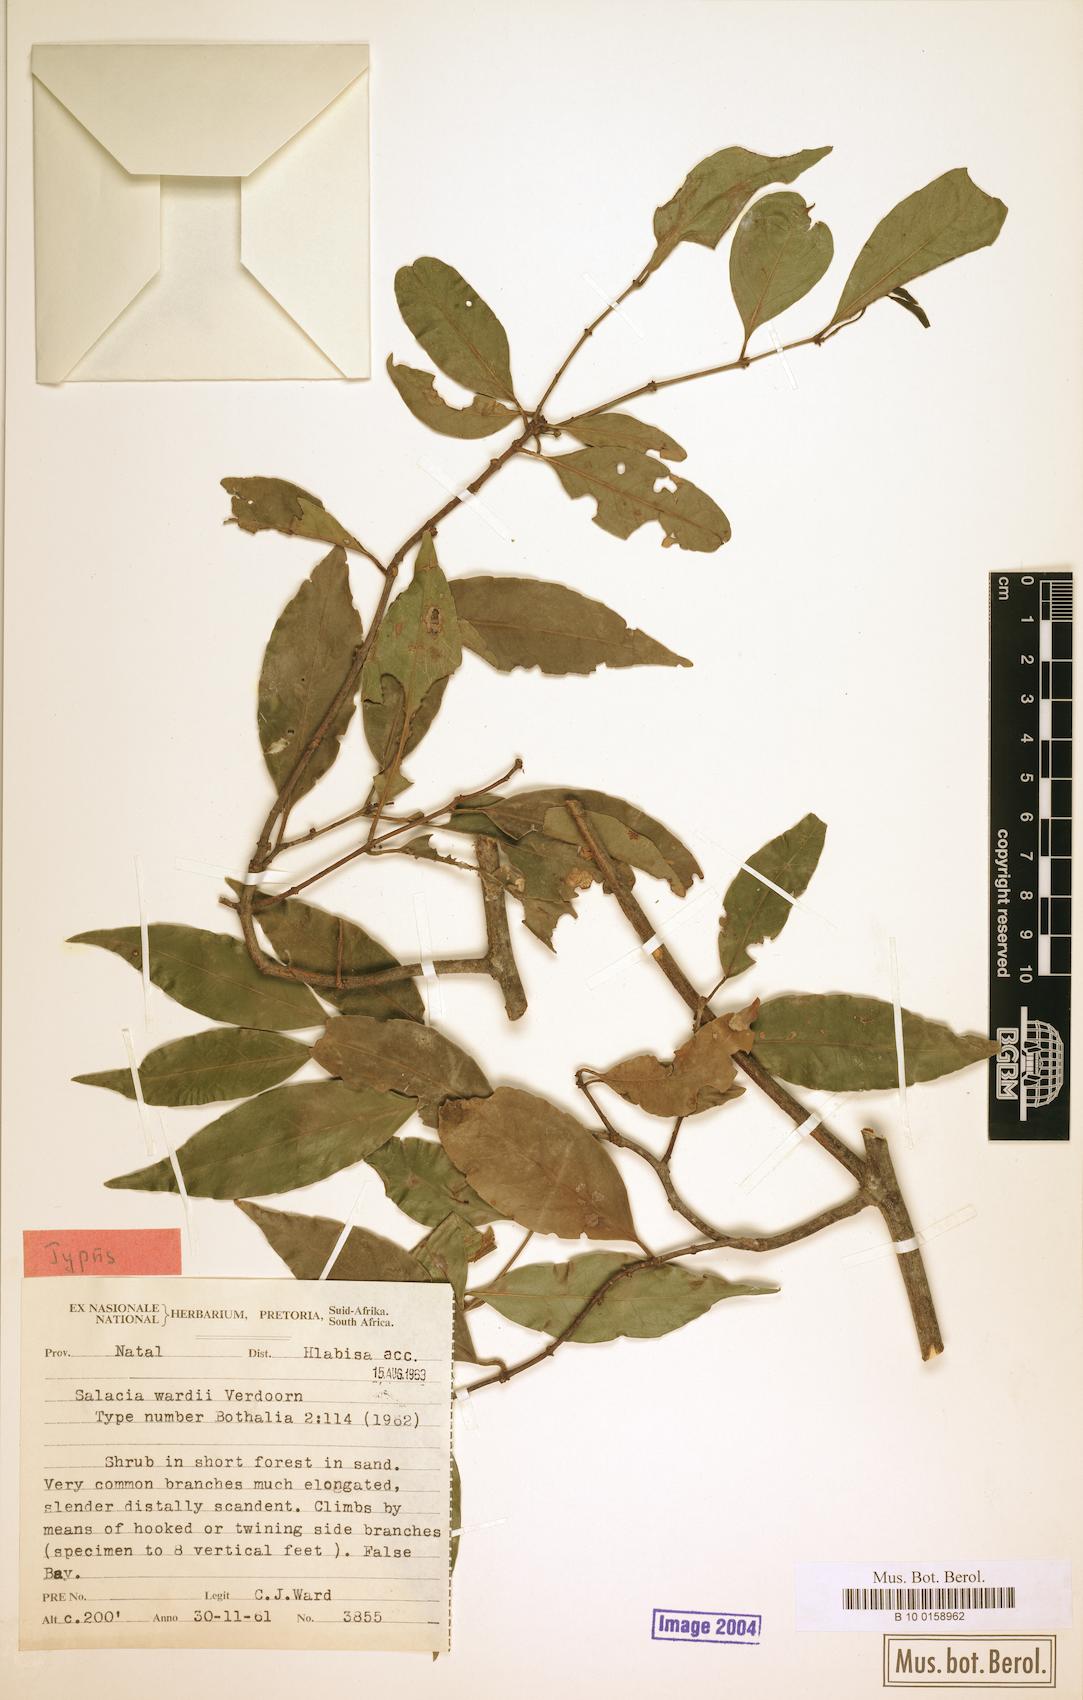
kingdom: Plantae
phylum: Tracheophyta
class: Magnoliopsida
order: Celastrales
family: Celastraceae
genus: Salacia
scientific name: Salacia leptoclada
